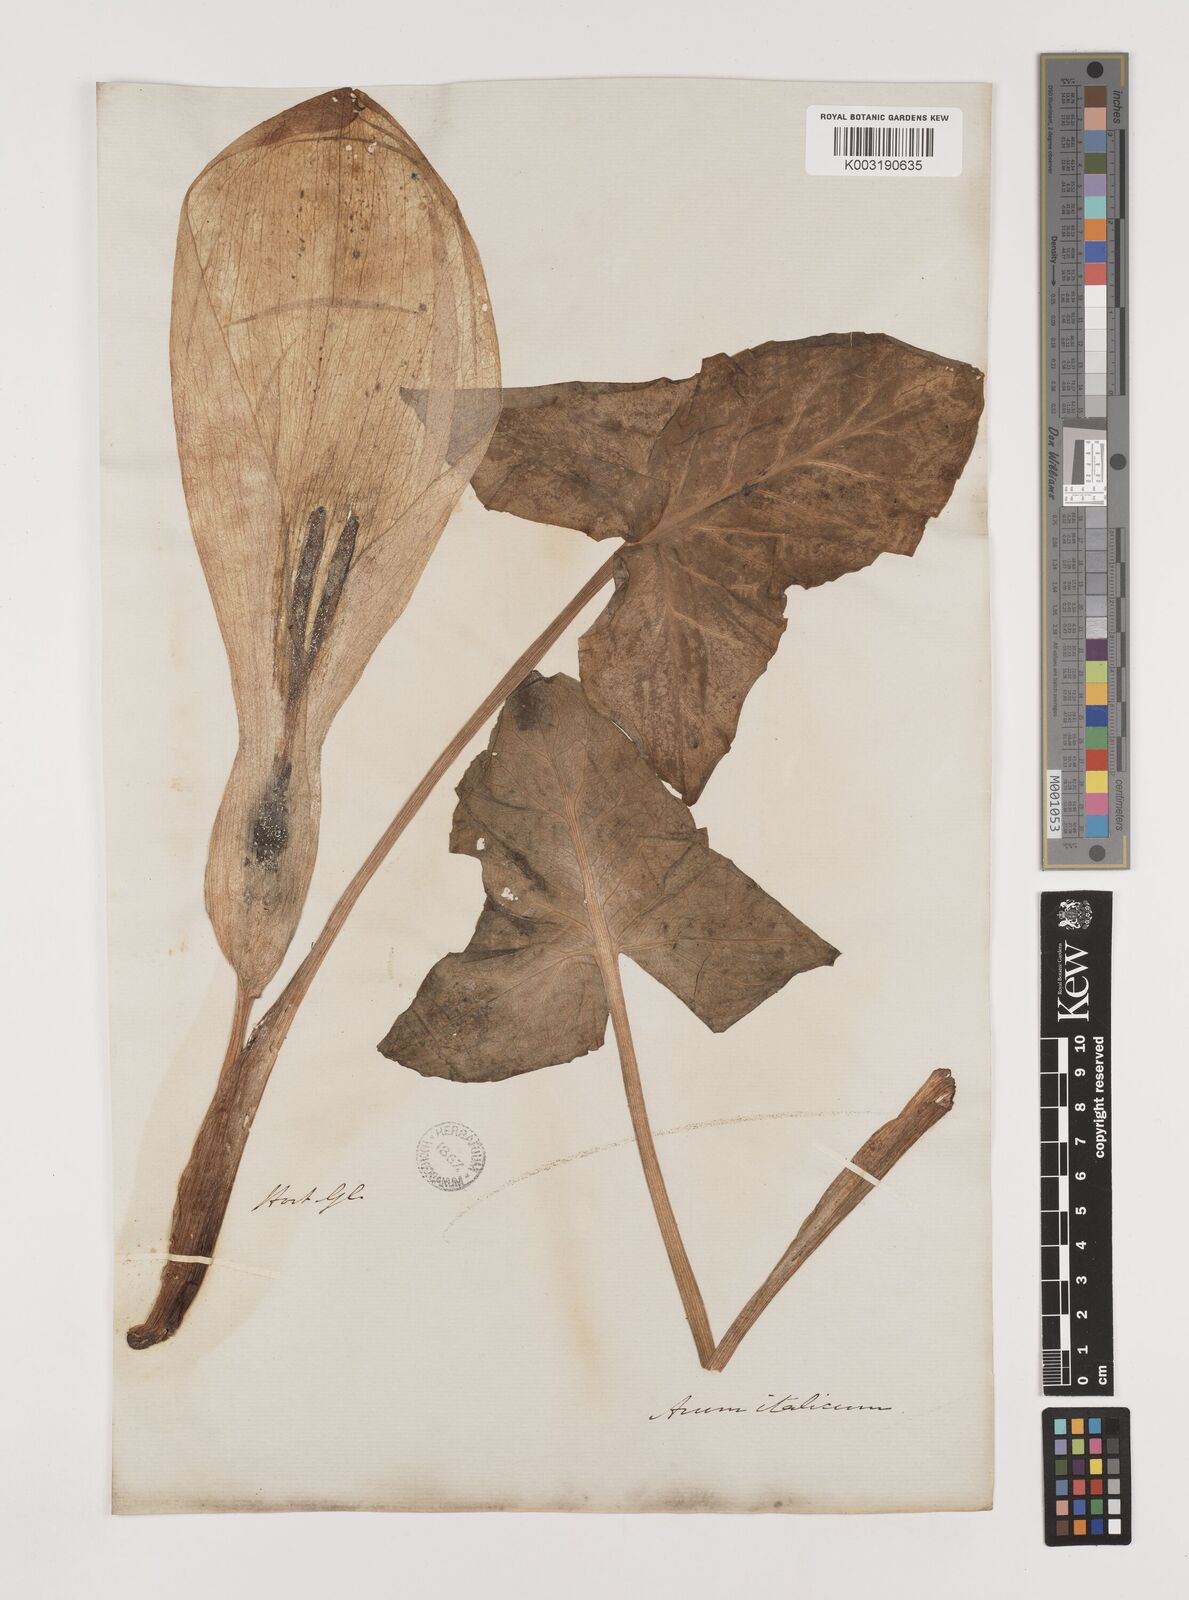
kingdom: Plantae
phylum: Tracheophyta
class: Liliopsida
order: Alismatales
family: Araceae
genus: Arum
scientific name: Arum italicum
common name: Italian lords-and-ladies
